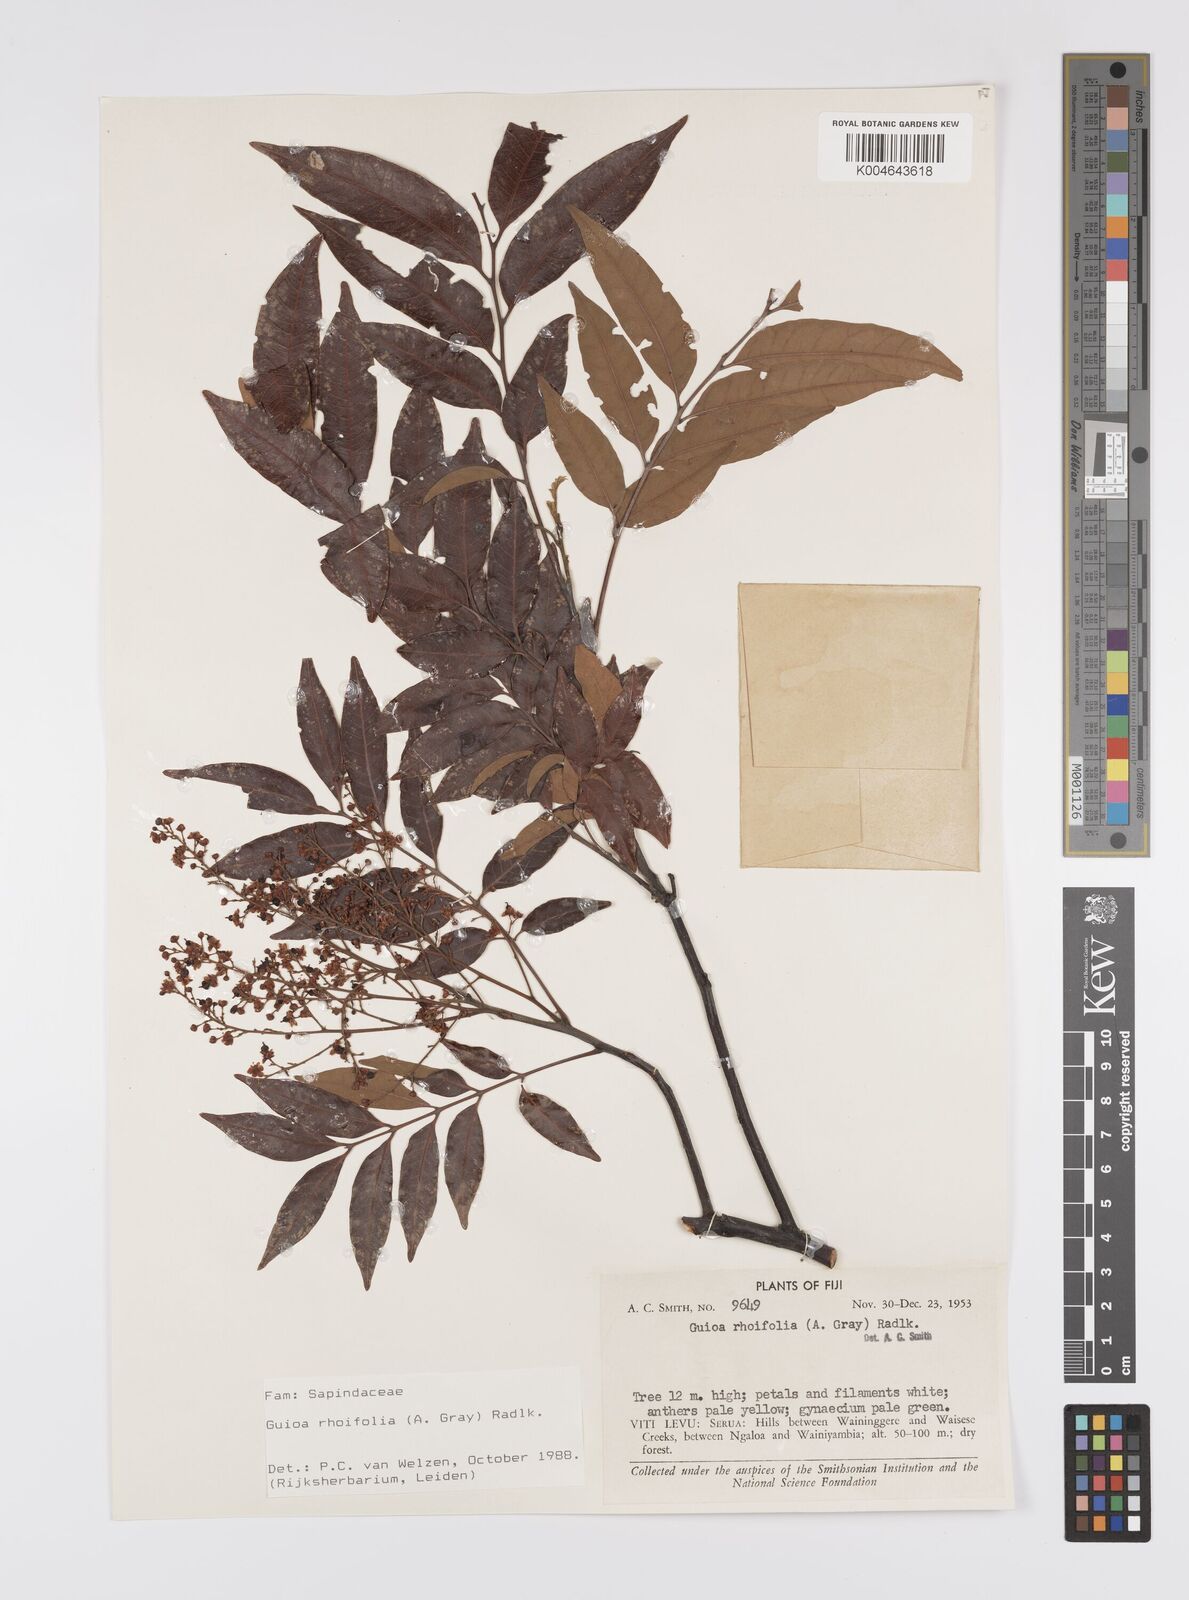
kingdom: Plantae
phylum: Tracheophyta
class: Magnoliopsida
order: Sapindales
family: Sapindaceae
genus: Guioa
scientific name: Guioa rhoifolia
